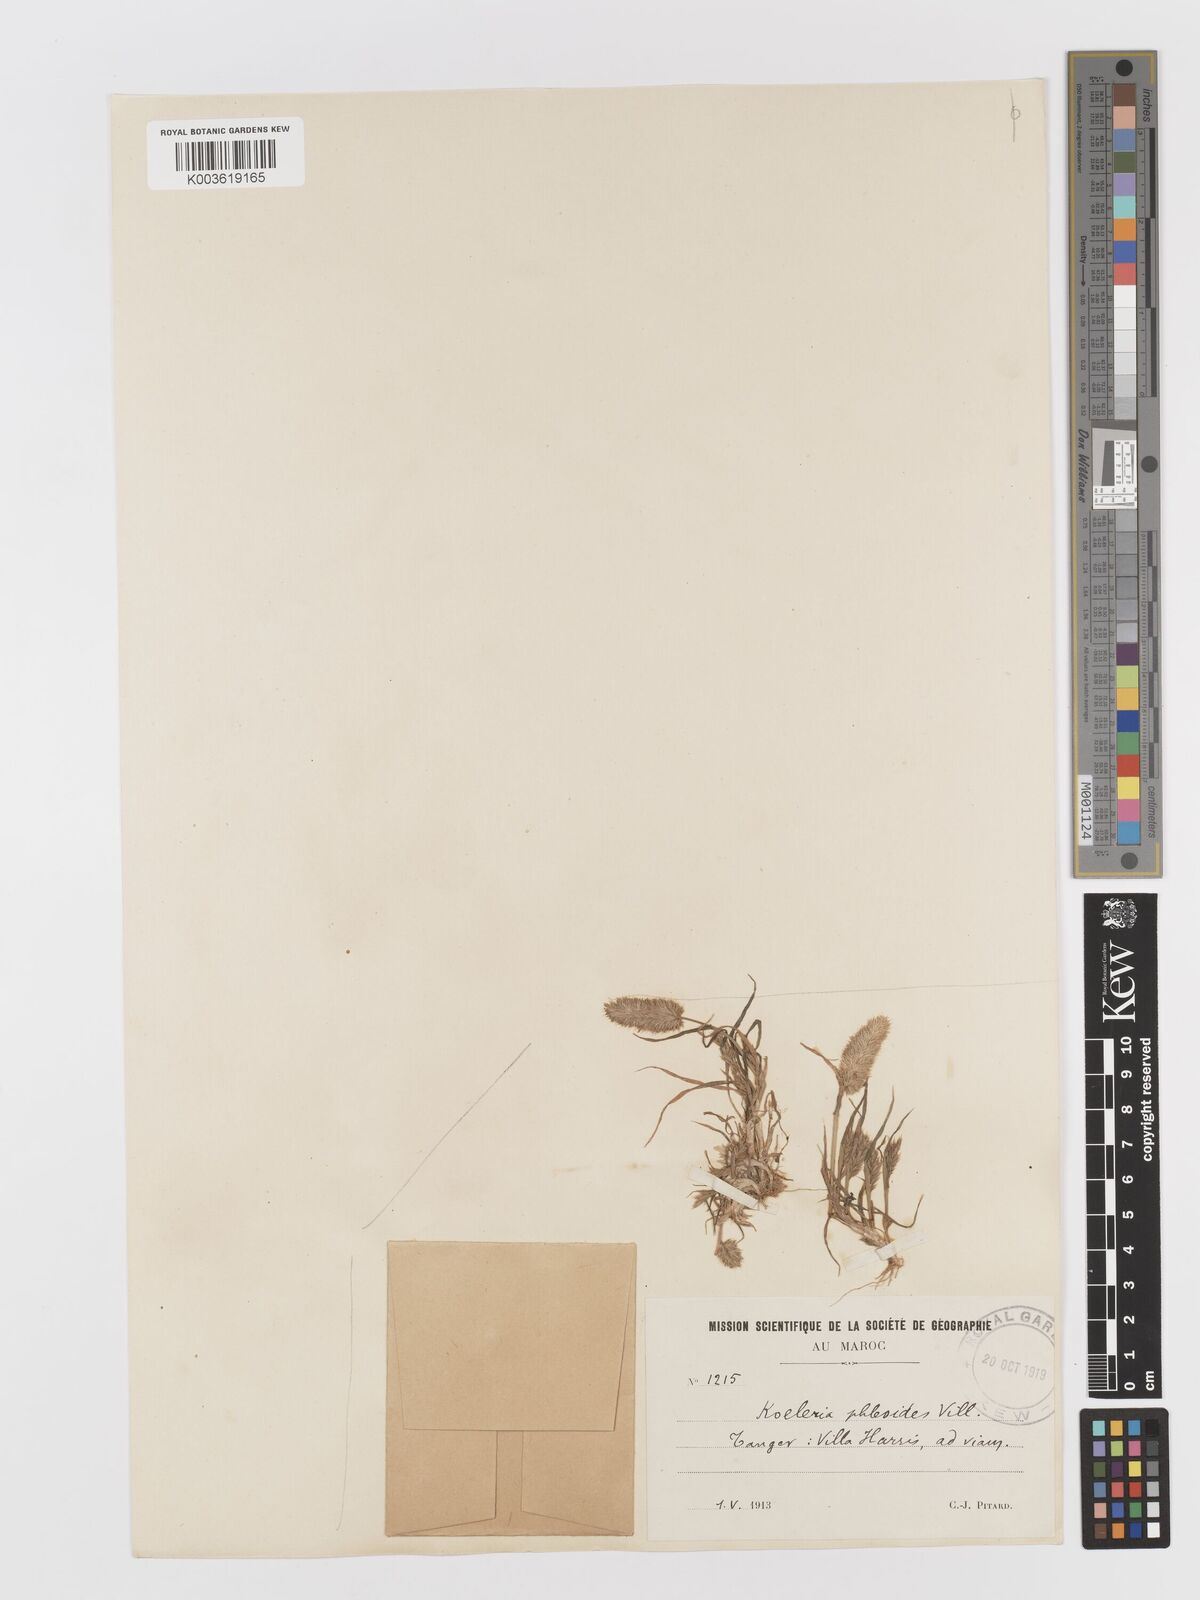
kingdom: Plantae
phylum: Tracheophyta
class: Liliopsida
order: Poales
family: Poaceae
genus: Rostraria
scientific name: Rostraria cristata
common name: Mediterranean hair-grass
